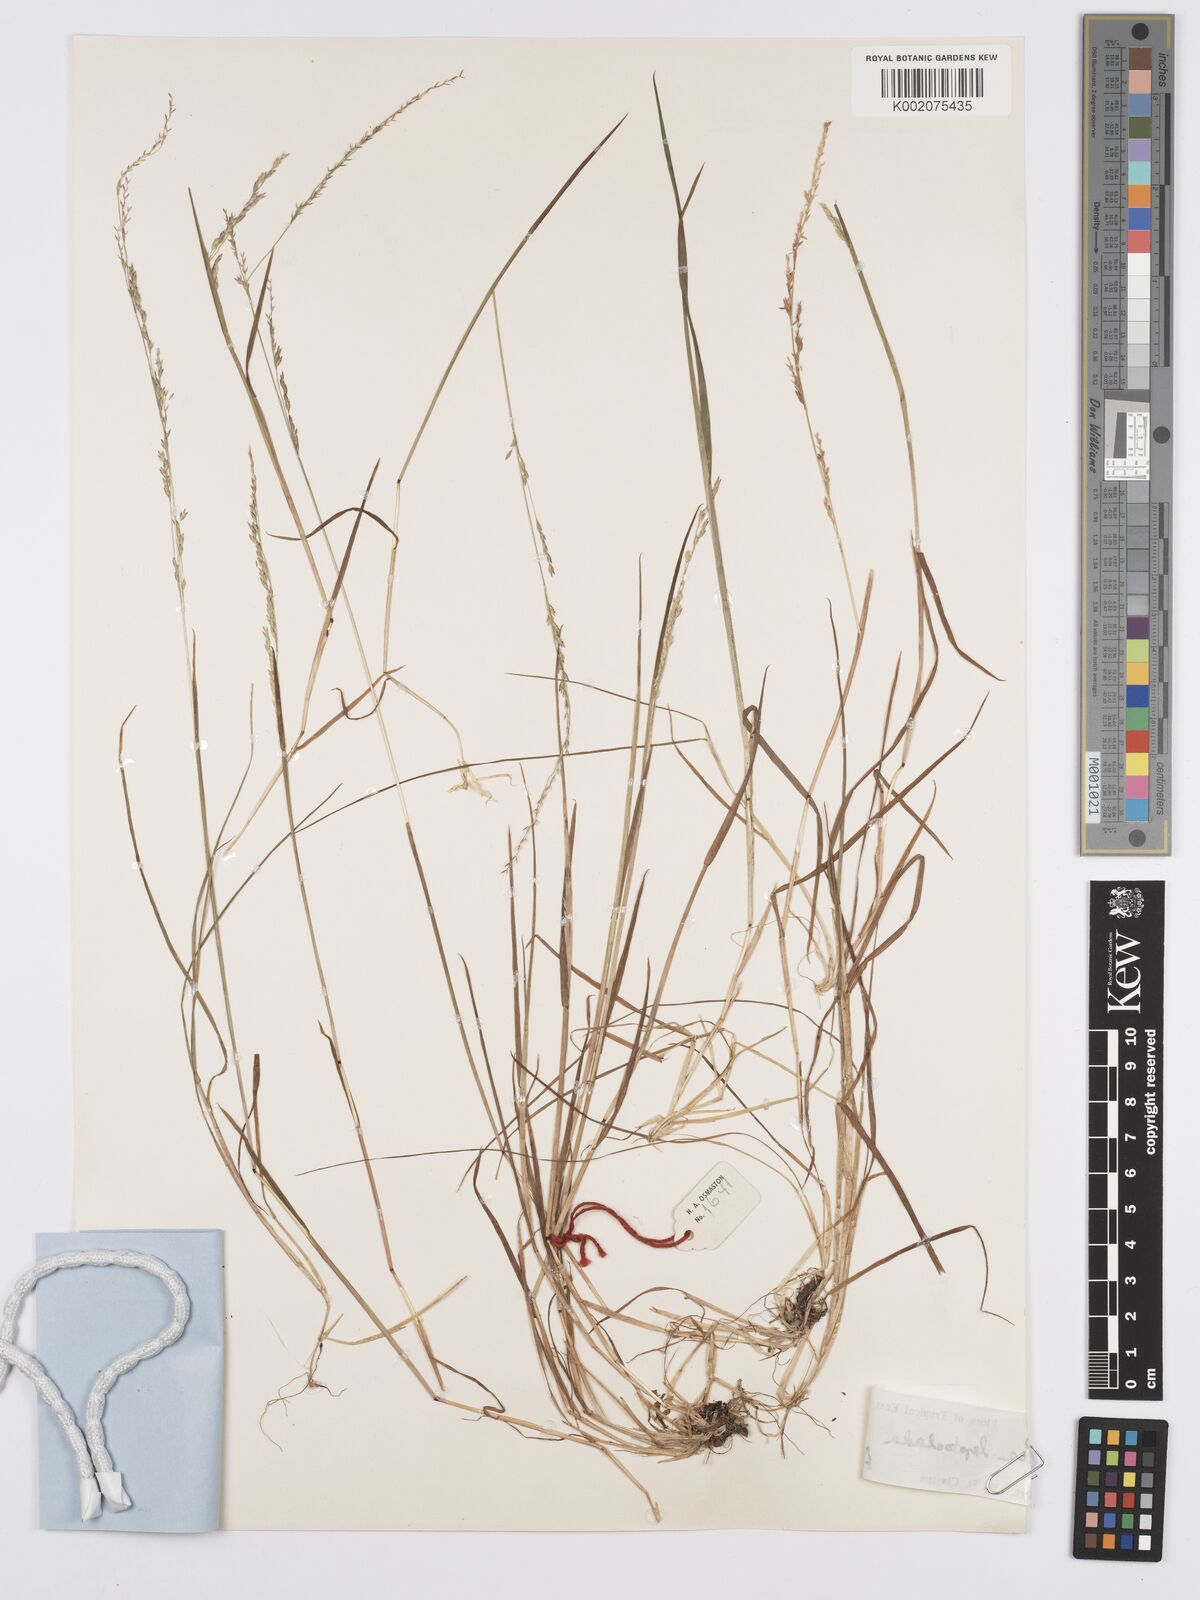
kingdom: Plantae
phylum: Tracheophyta
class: Liliopsida
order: Poales
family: Poaceae
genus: Poa
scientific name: Poa
